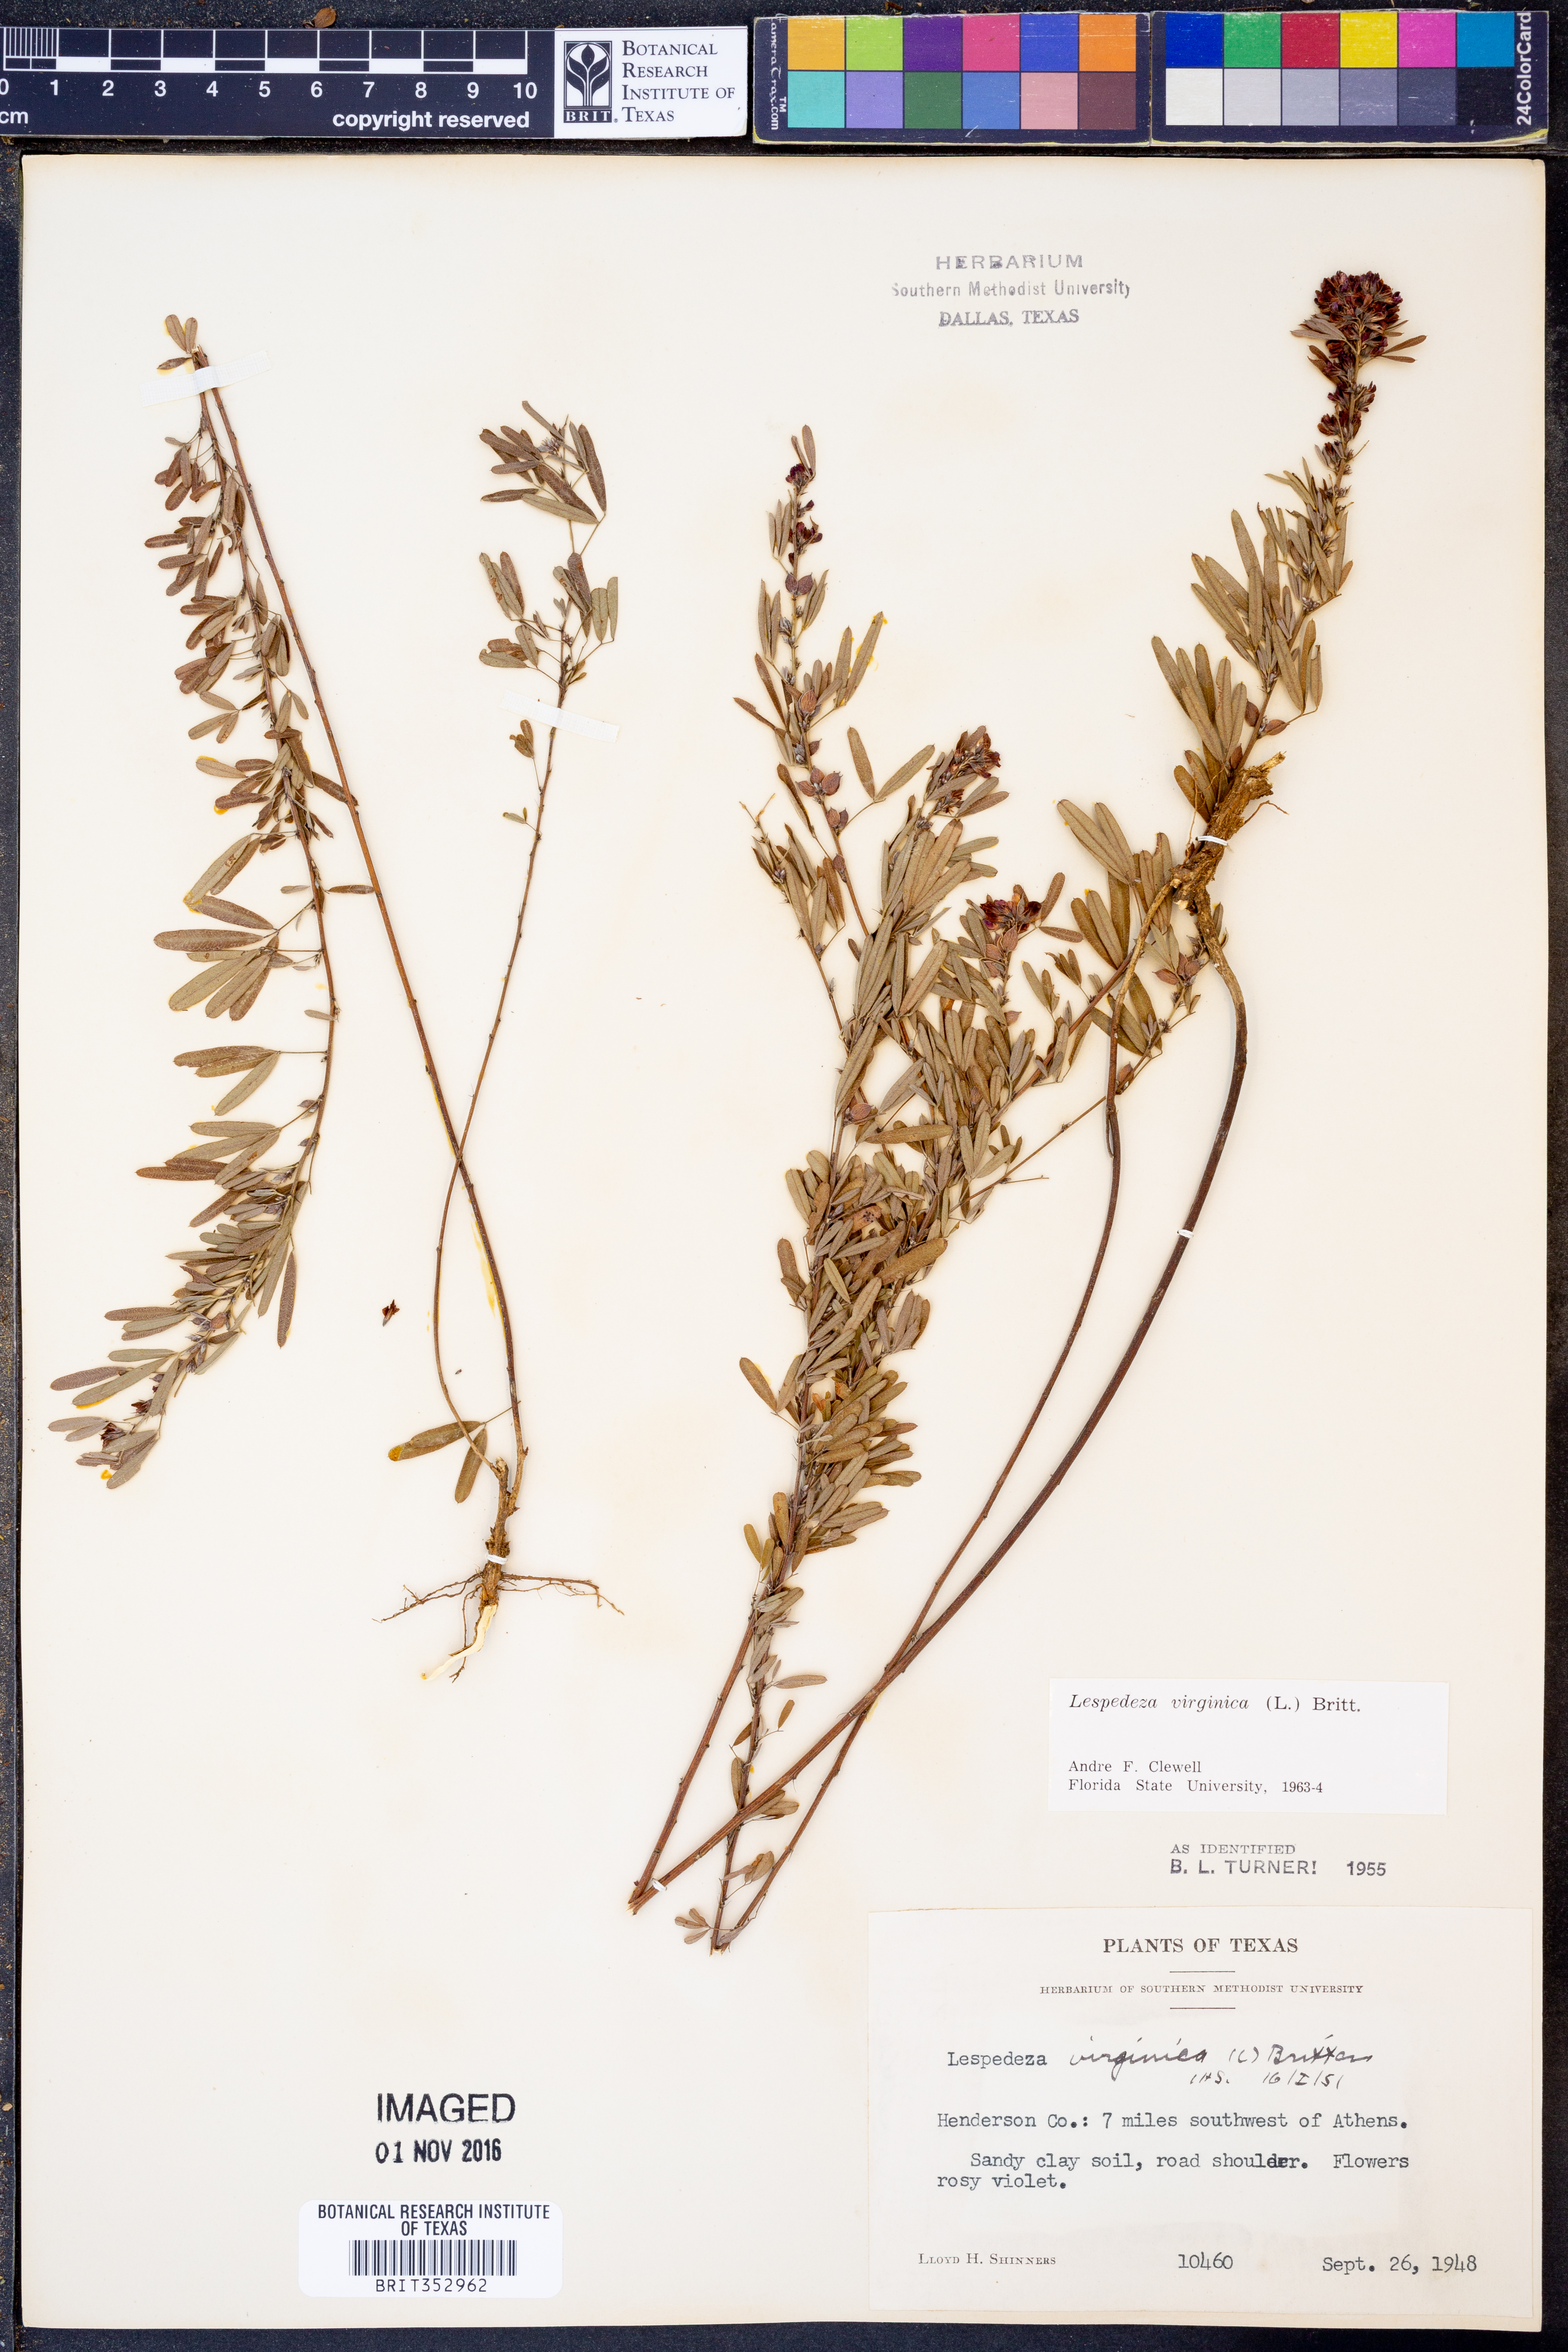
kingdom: Plantae
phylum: Tracheophyta
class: Magnoliopsida
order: Fabales
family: Fabaceae
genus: Lespedeza
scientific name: Lespedeza virginica
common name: Slender bush-clover
